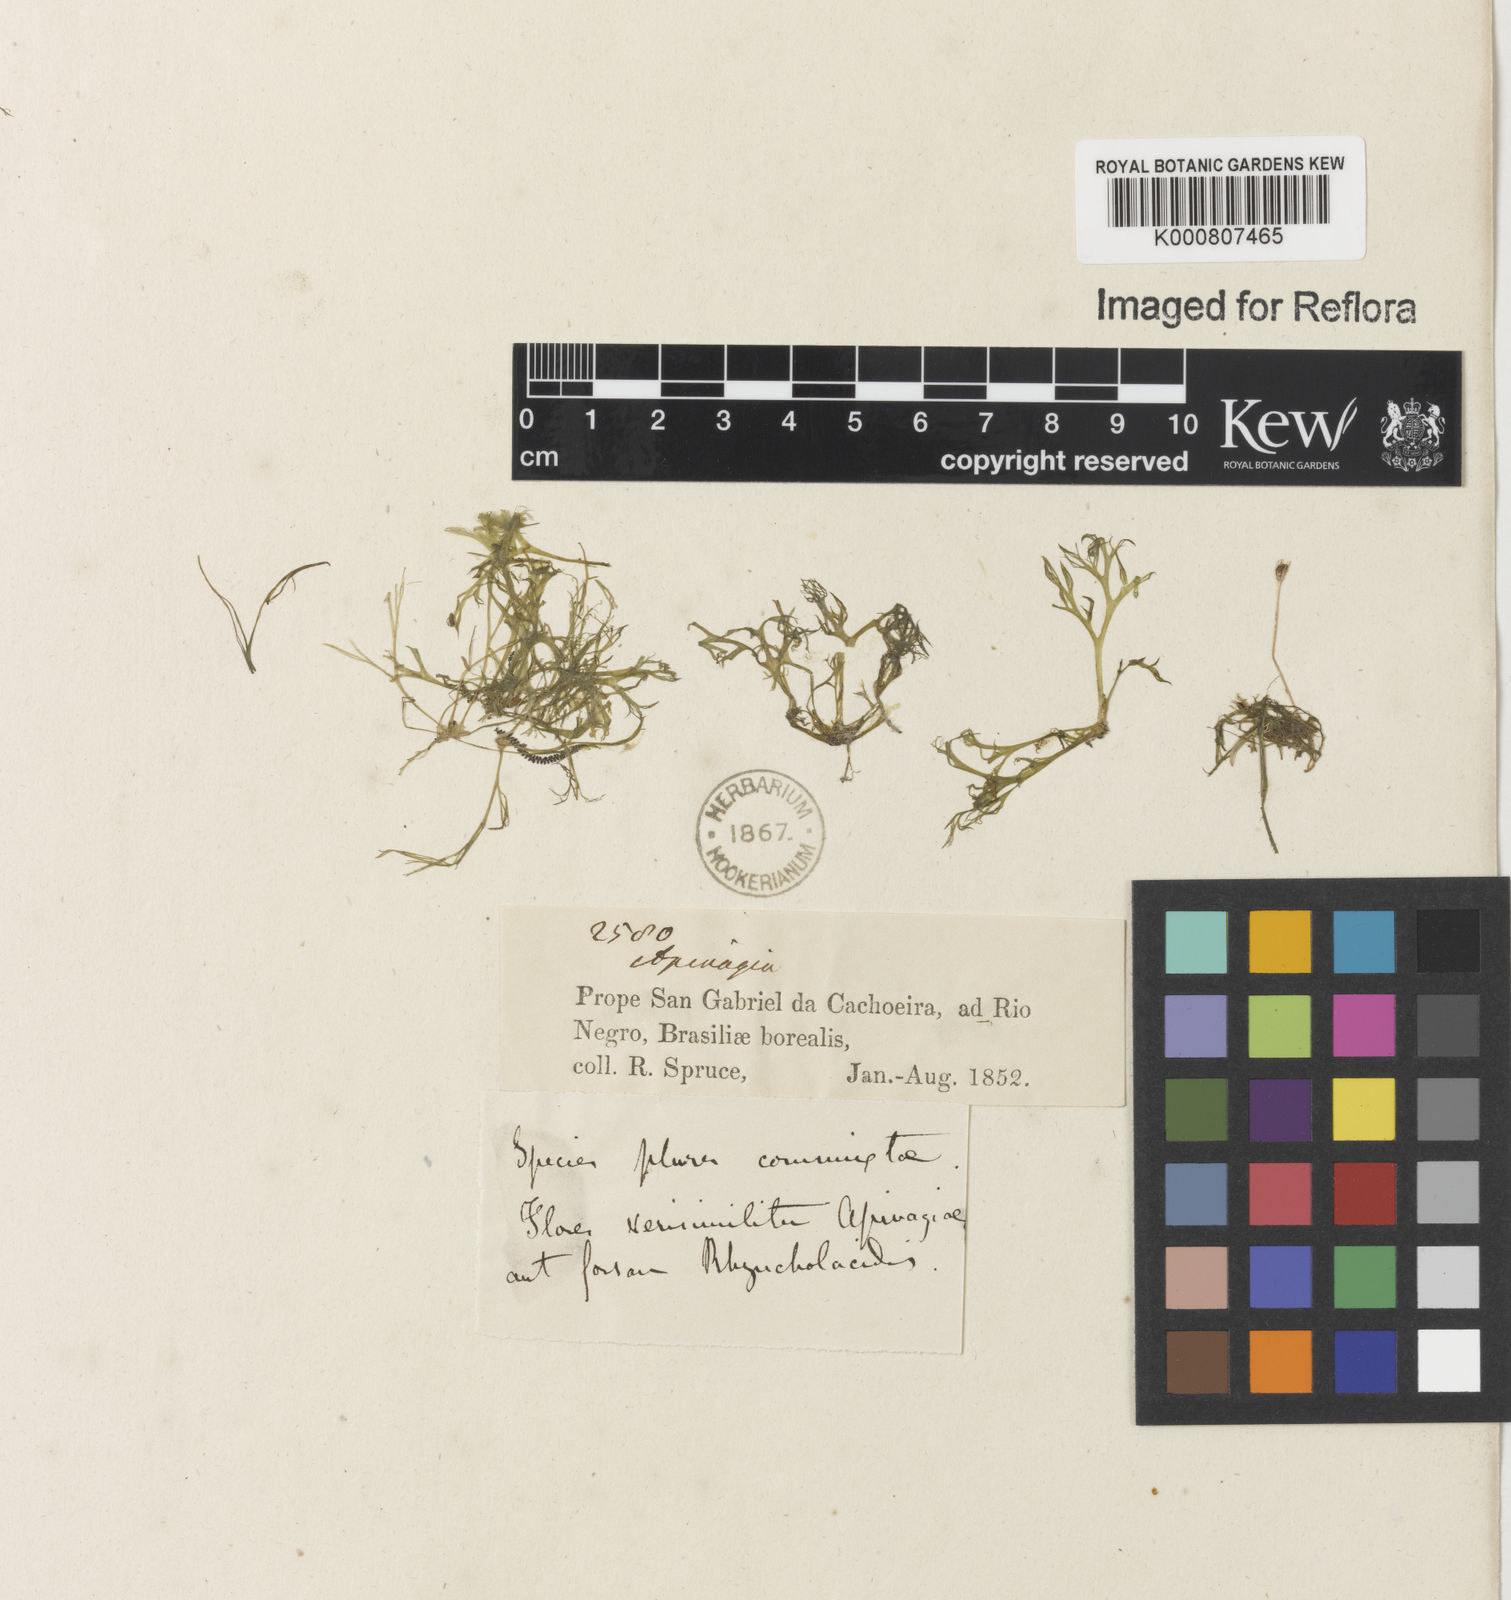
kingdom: Plantae
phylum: Tracheophyta
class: Magnoliopsida
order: Malpighiales
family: Podostemaceae
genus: Rhyncholacis
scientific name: Rhyncholacis squamosa
